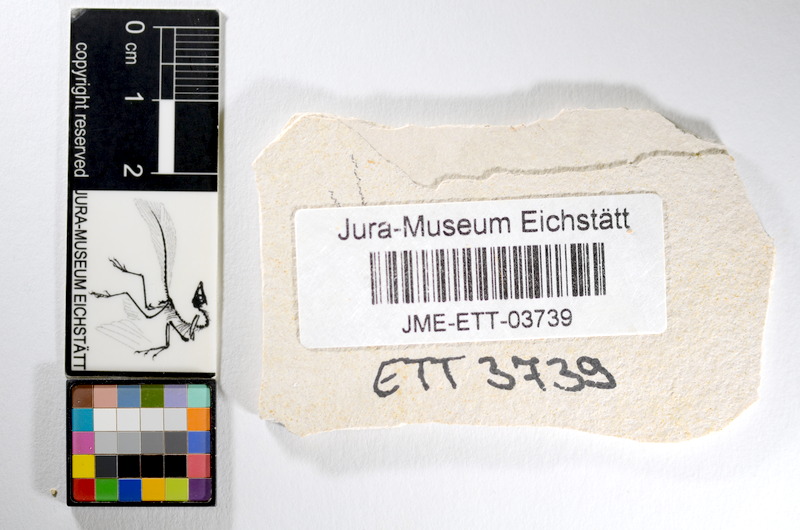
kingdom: Animalia
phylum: Chordata
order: Salmoniformes
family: Orthogonikleithridae
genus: Orthogonikleithrus
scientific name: Orthogonikleithrus hoelli
